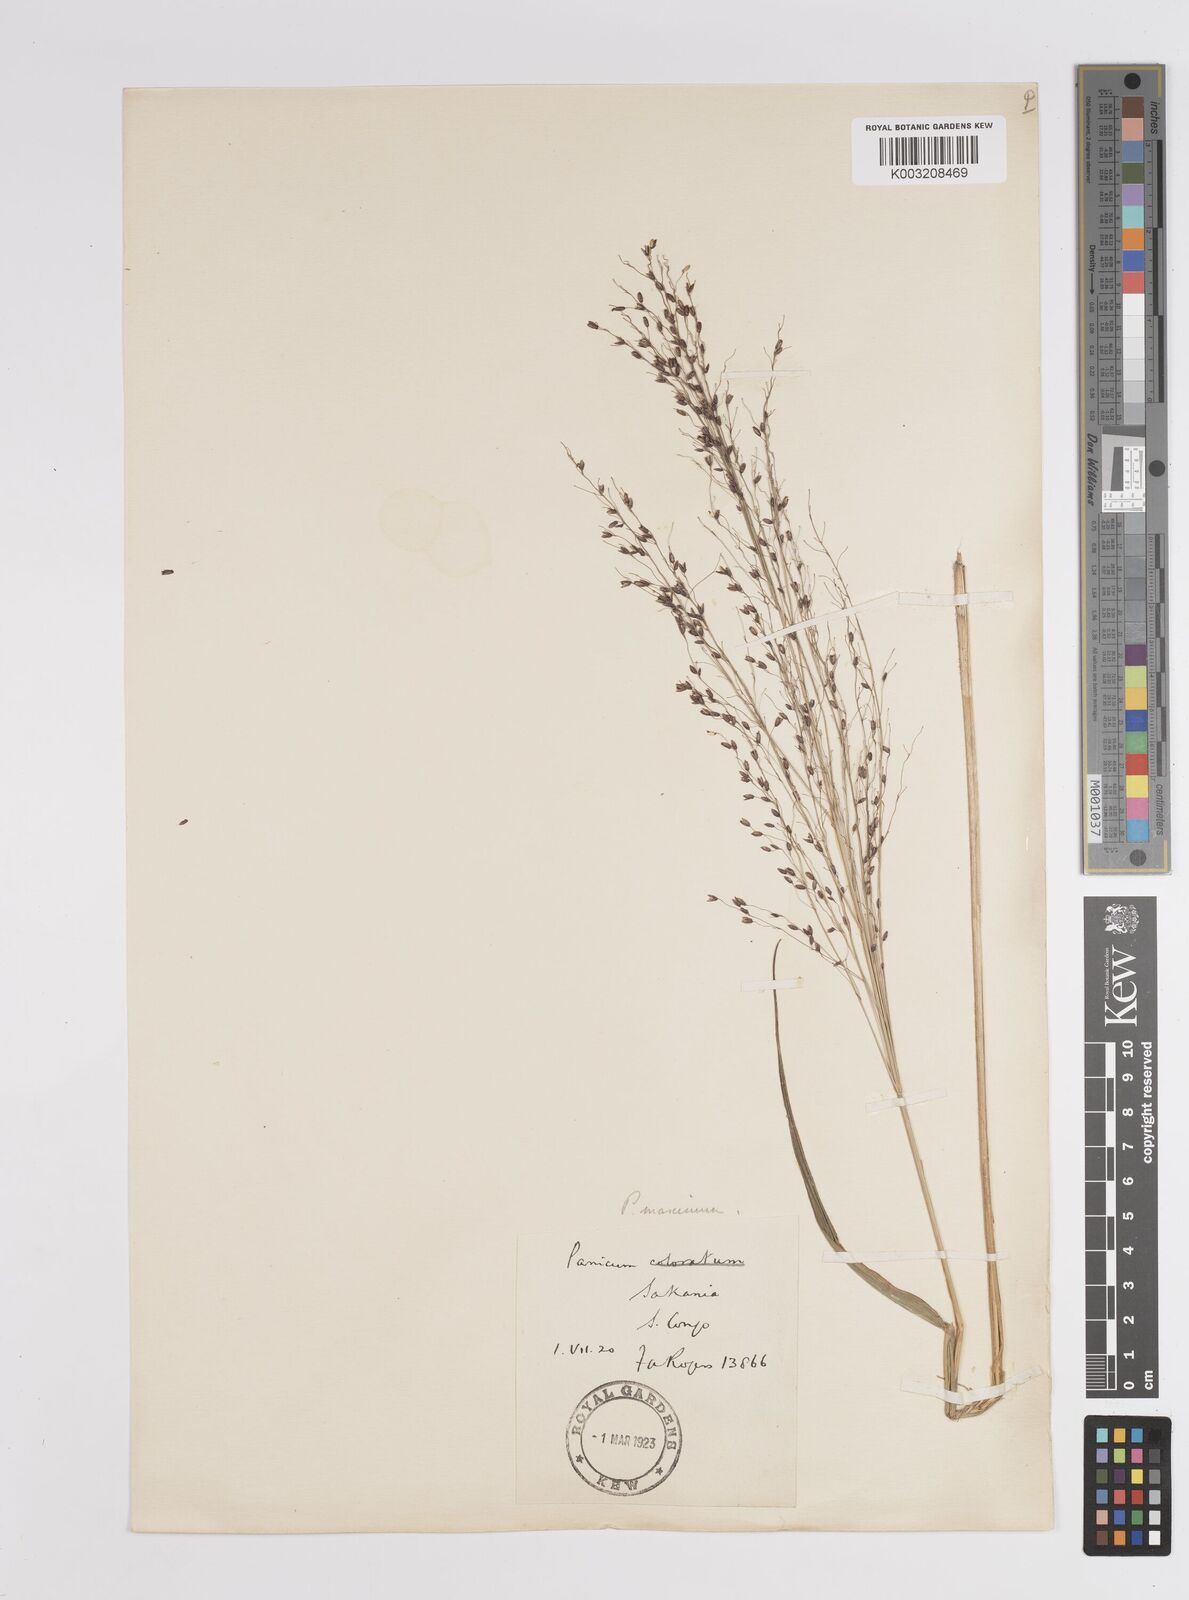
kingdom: Plantae
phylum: Tracheophyta
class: Liliopsida
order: Poales
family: Poaceae
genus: Megathyrsus
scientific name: Megathyrsus maximus
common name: Guineagrass
